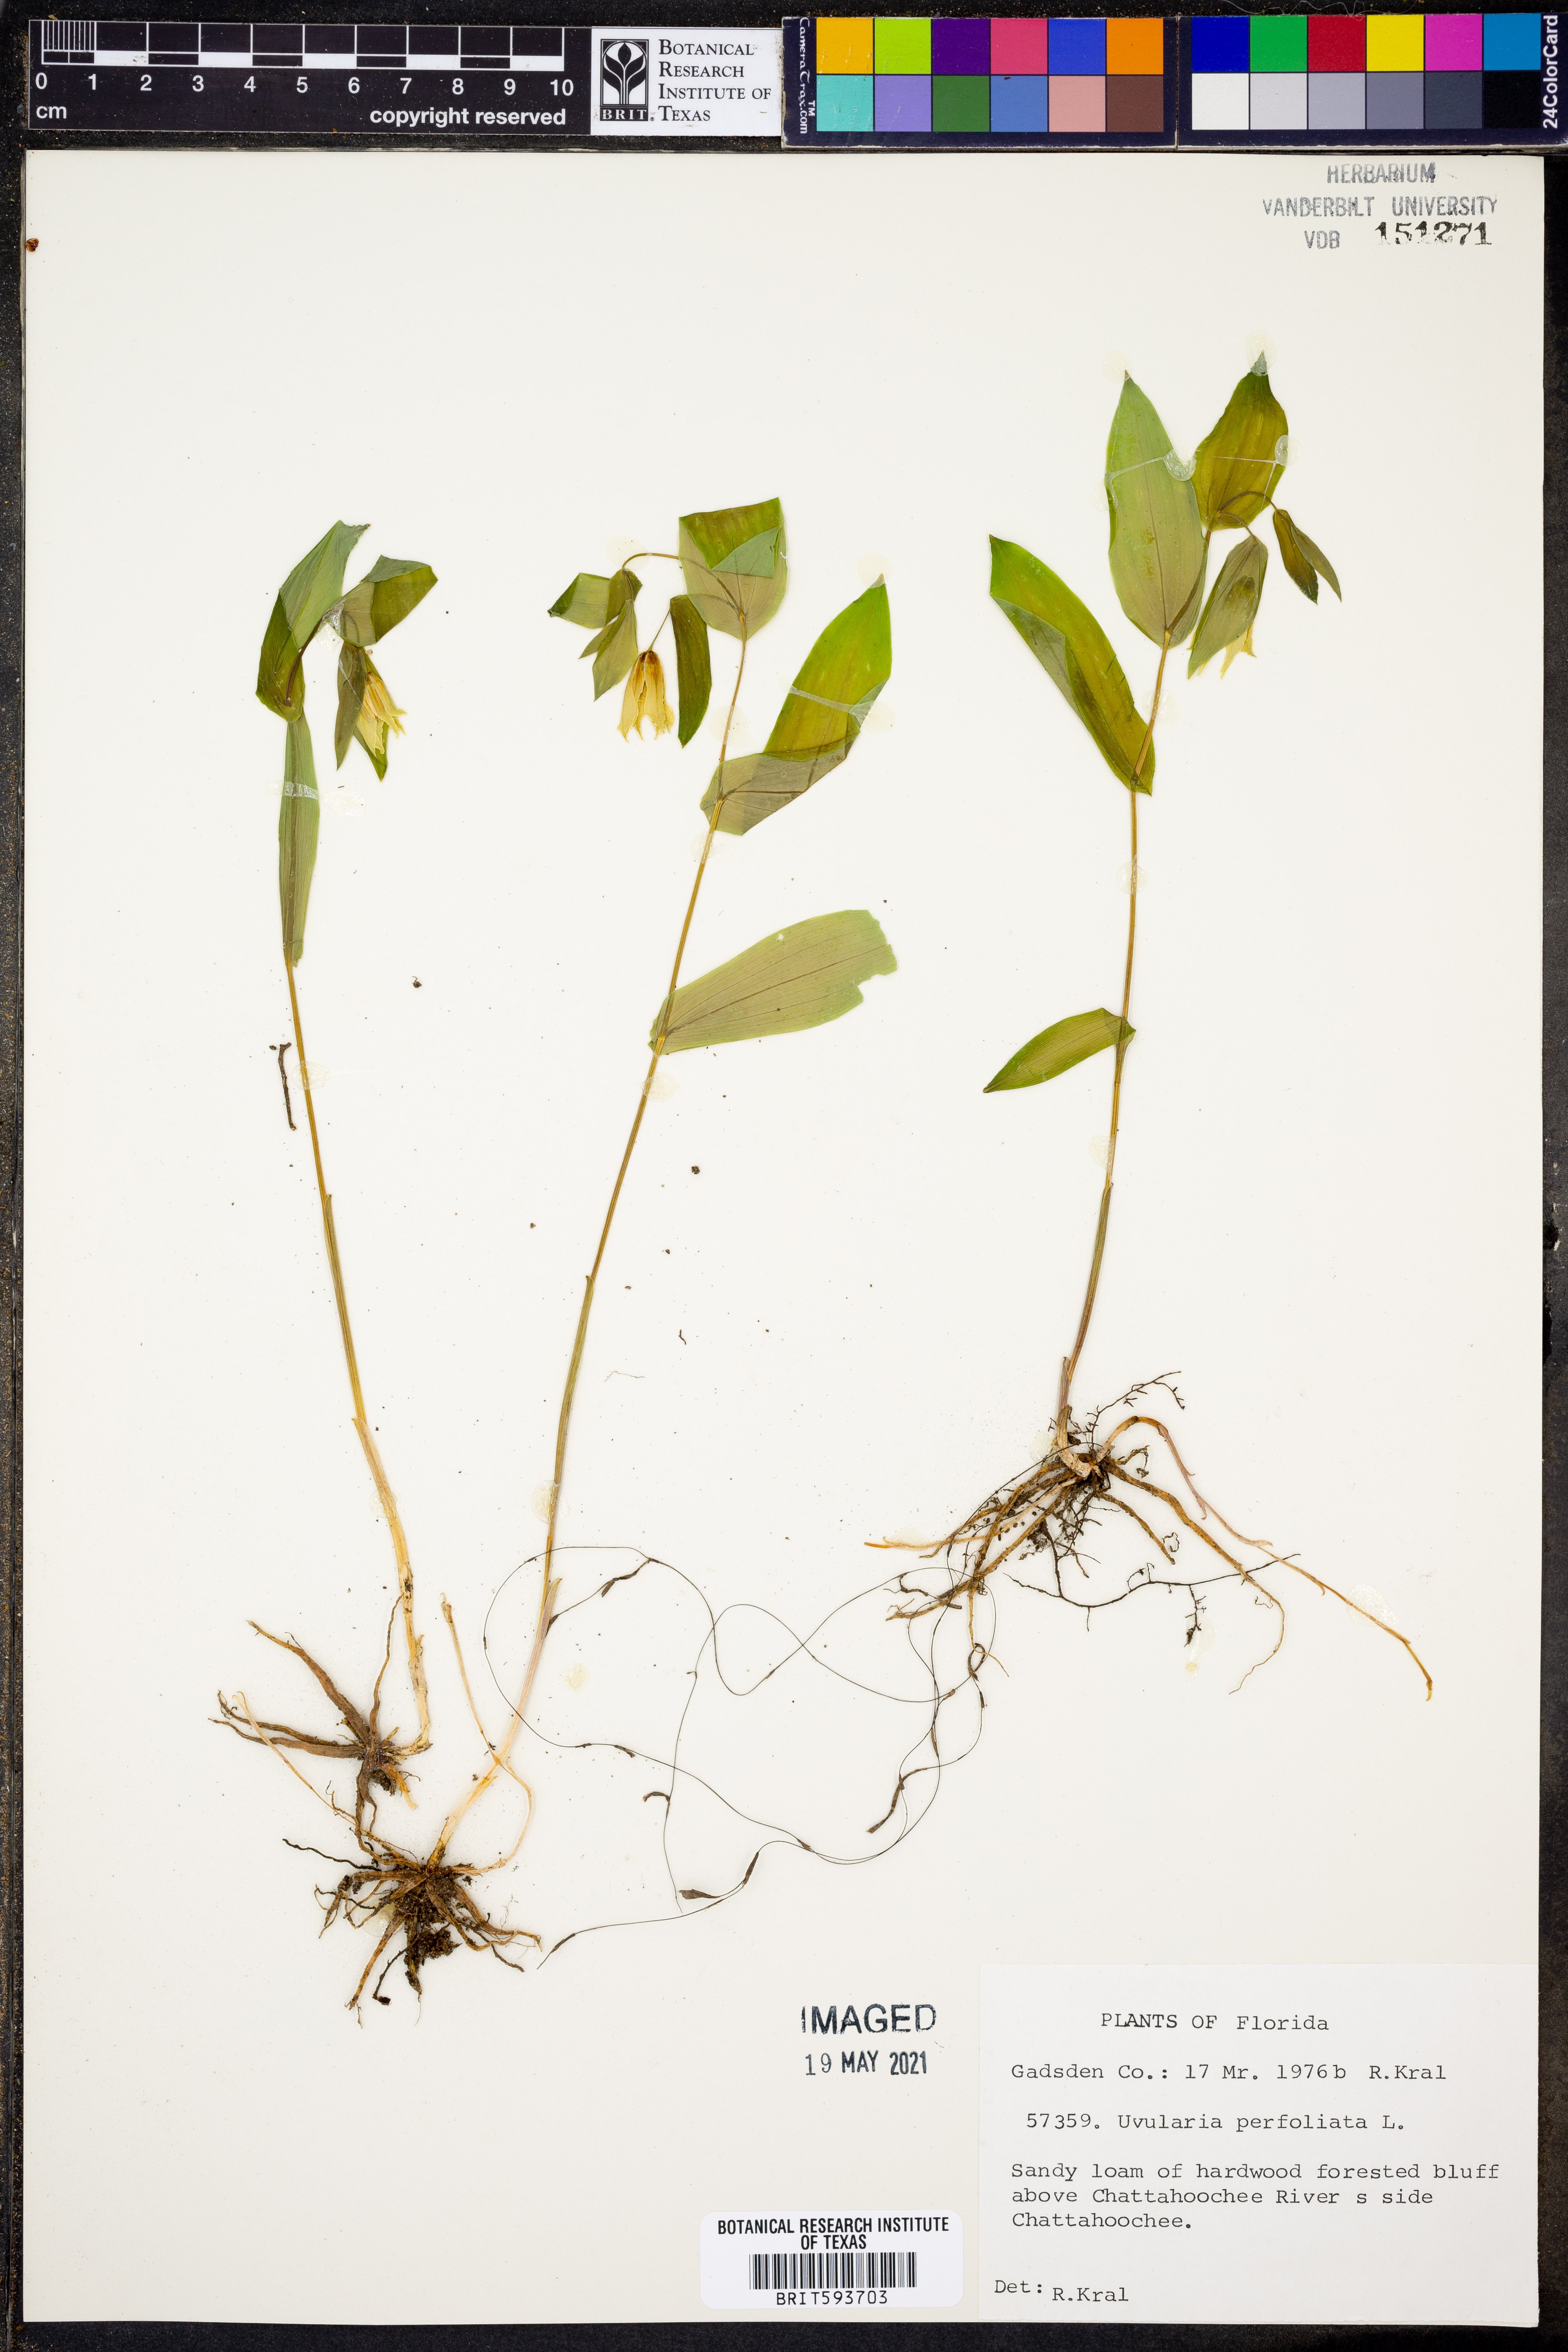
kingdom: Plantae
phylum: Tracheophyta
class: Liliopsida
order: Liliales
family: Colchicaceae
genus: Uvularia
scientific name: Uvularia perfoliata
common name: Perfoliate bellwort
